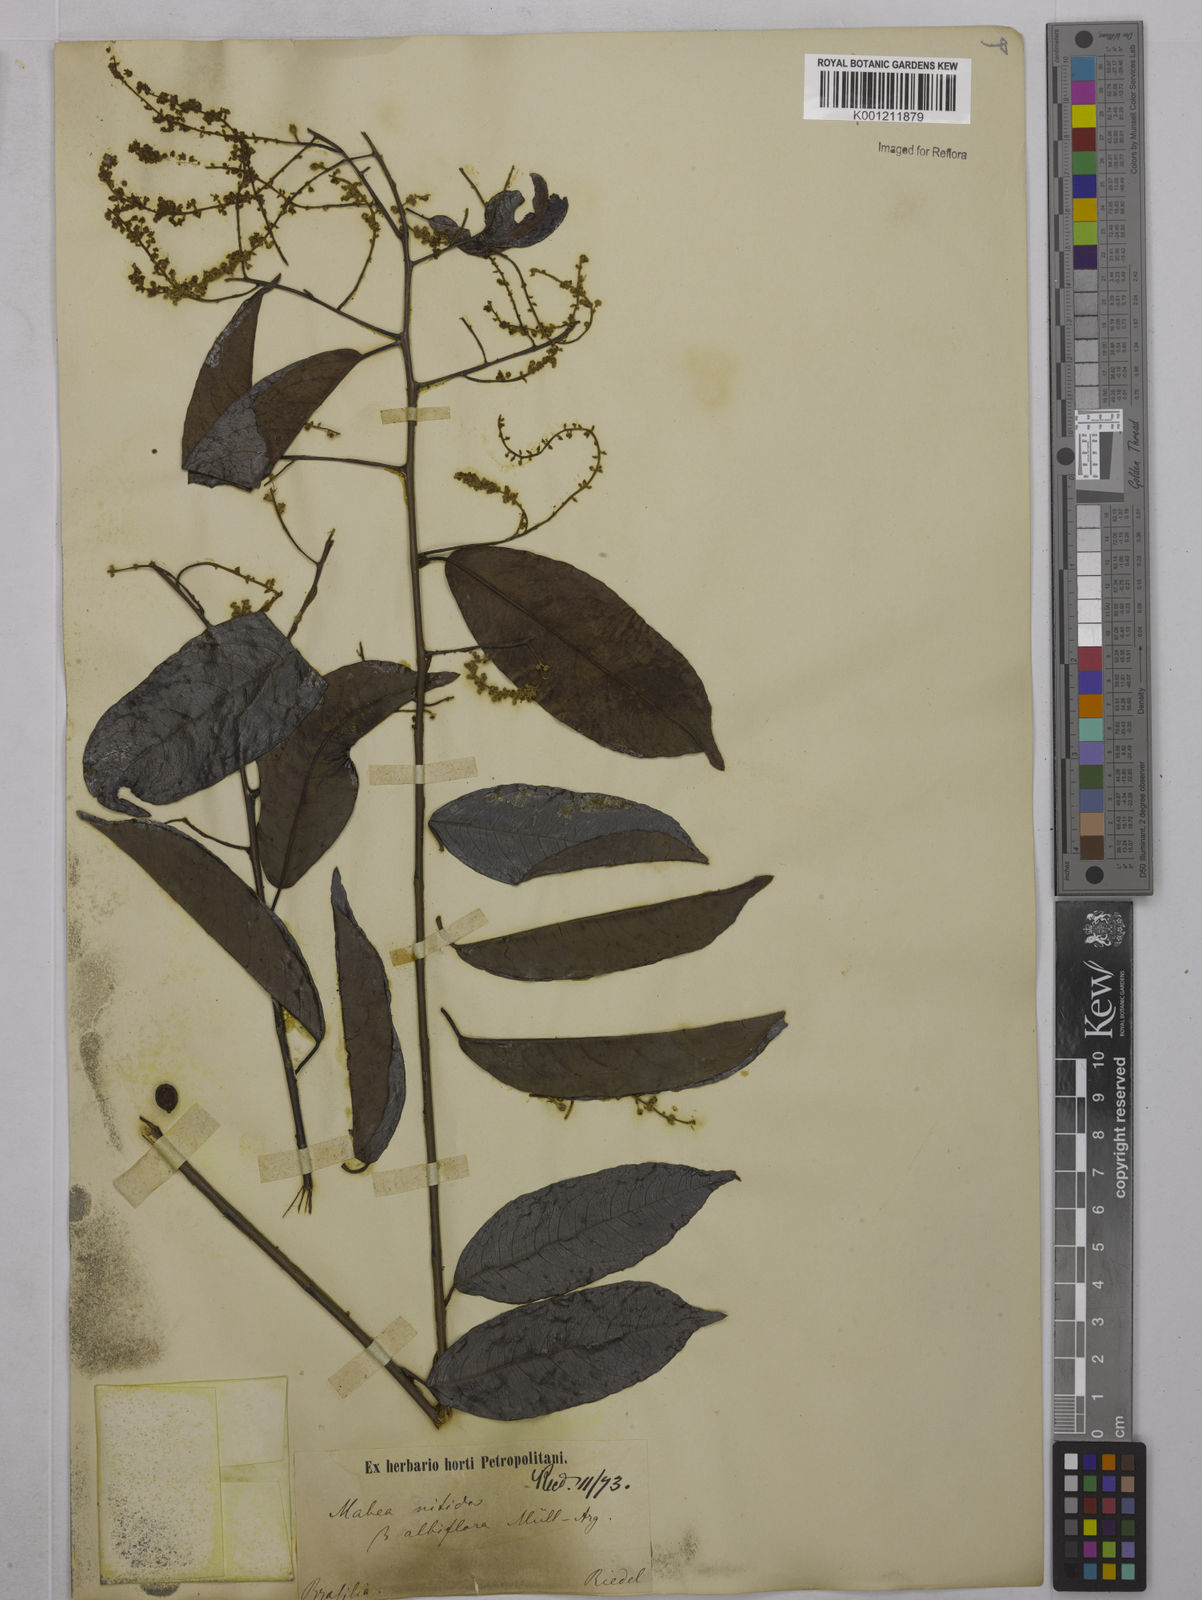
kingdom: Plantae
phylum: Tracheophyta
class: Magnoliopsida
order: Malpighiales
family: Euphorbiaceae
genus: Mabea
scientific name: Mabea nitida
